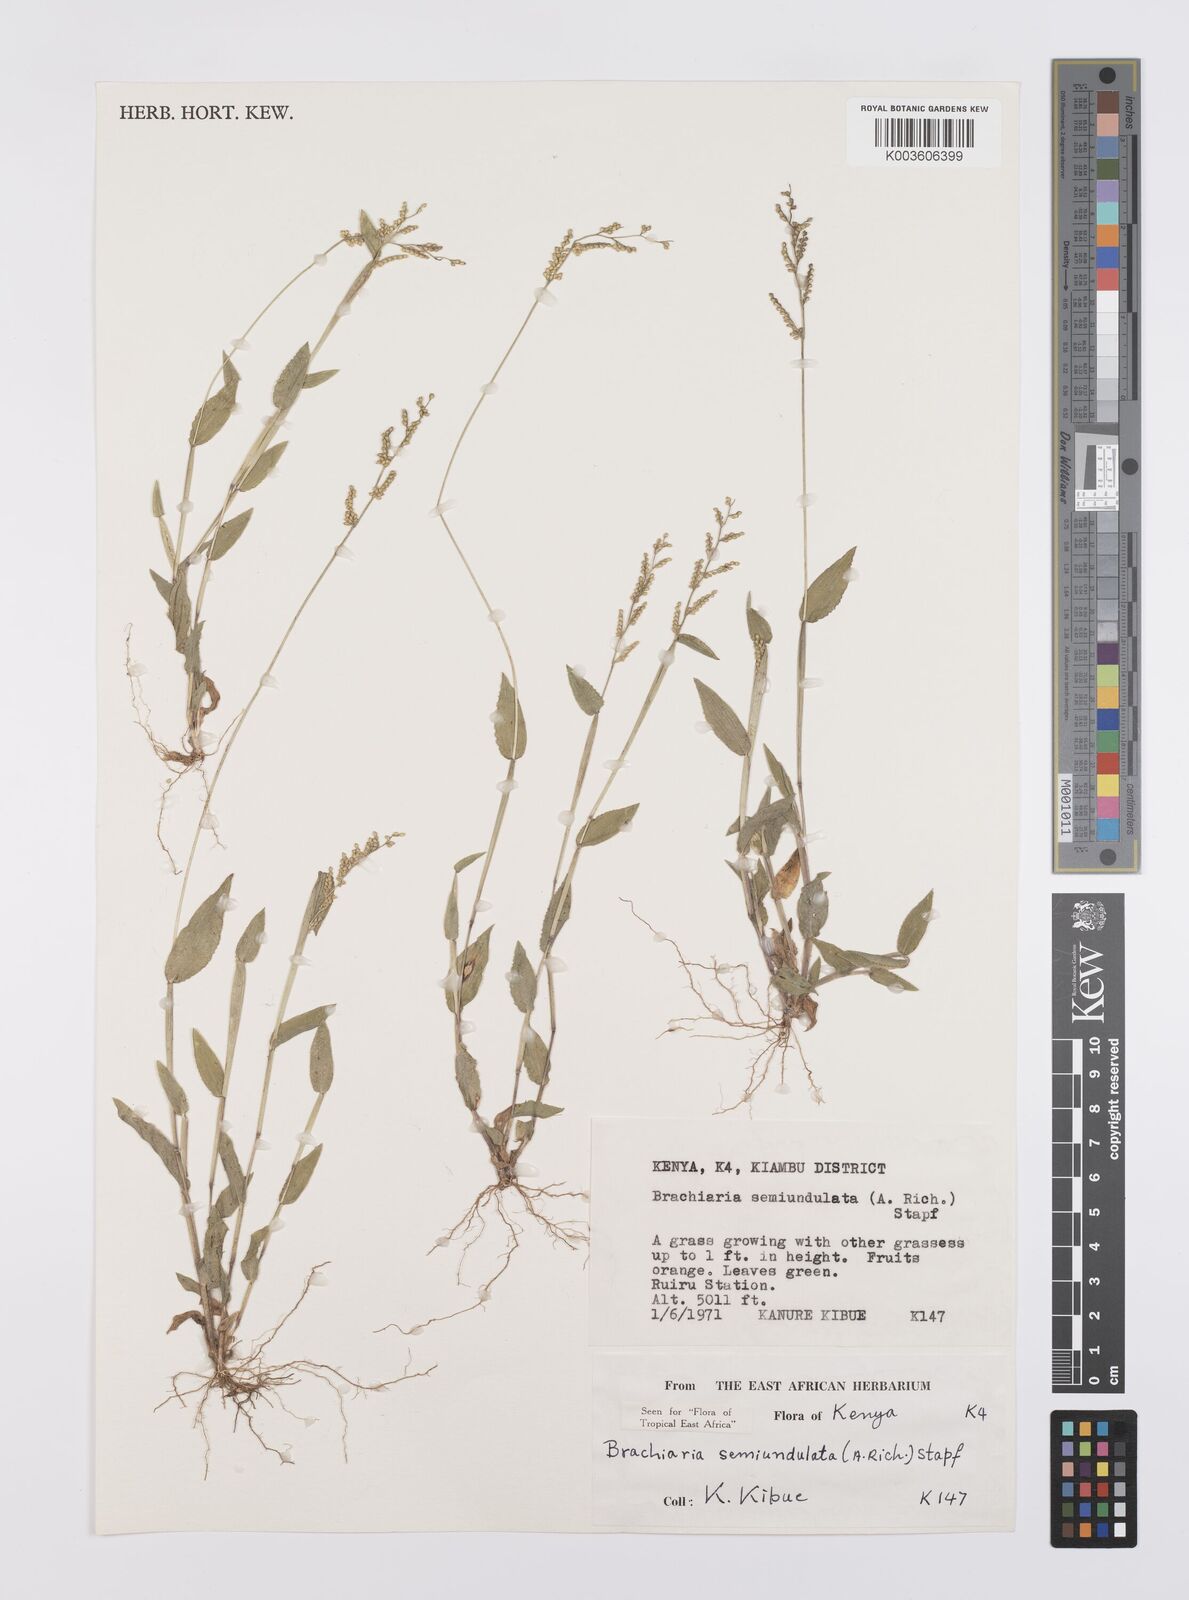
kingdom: Plantae
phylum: Tracheophyta
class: Liliopsida
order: Poales
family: Poaceae
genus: Urochloa
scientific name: Urochloa semiundulata
